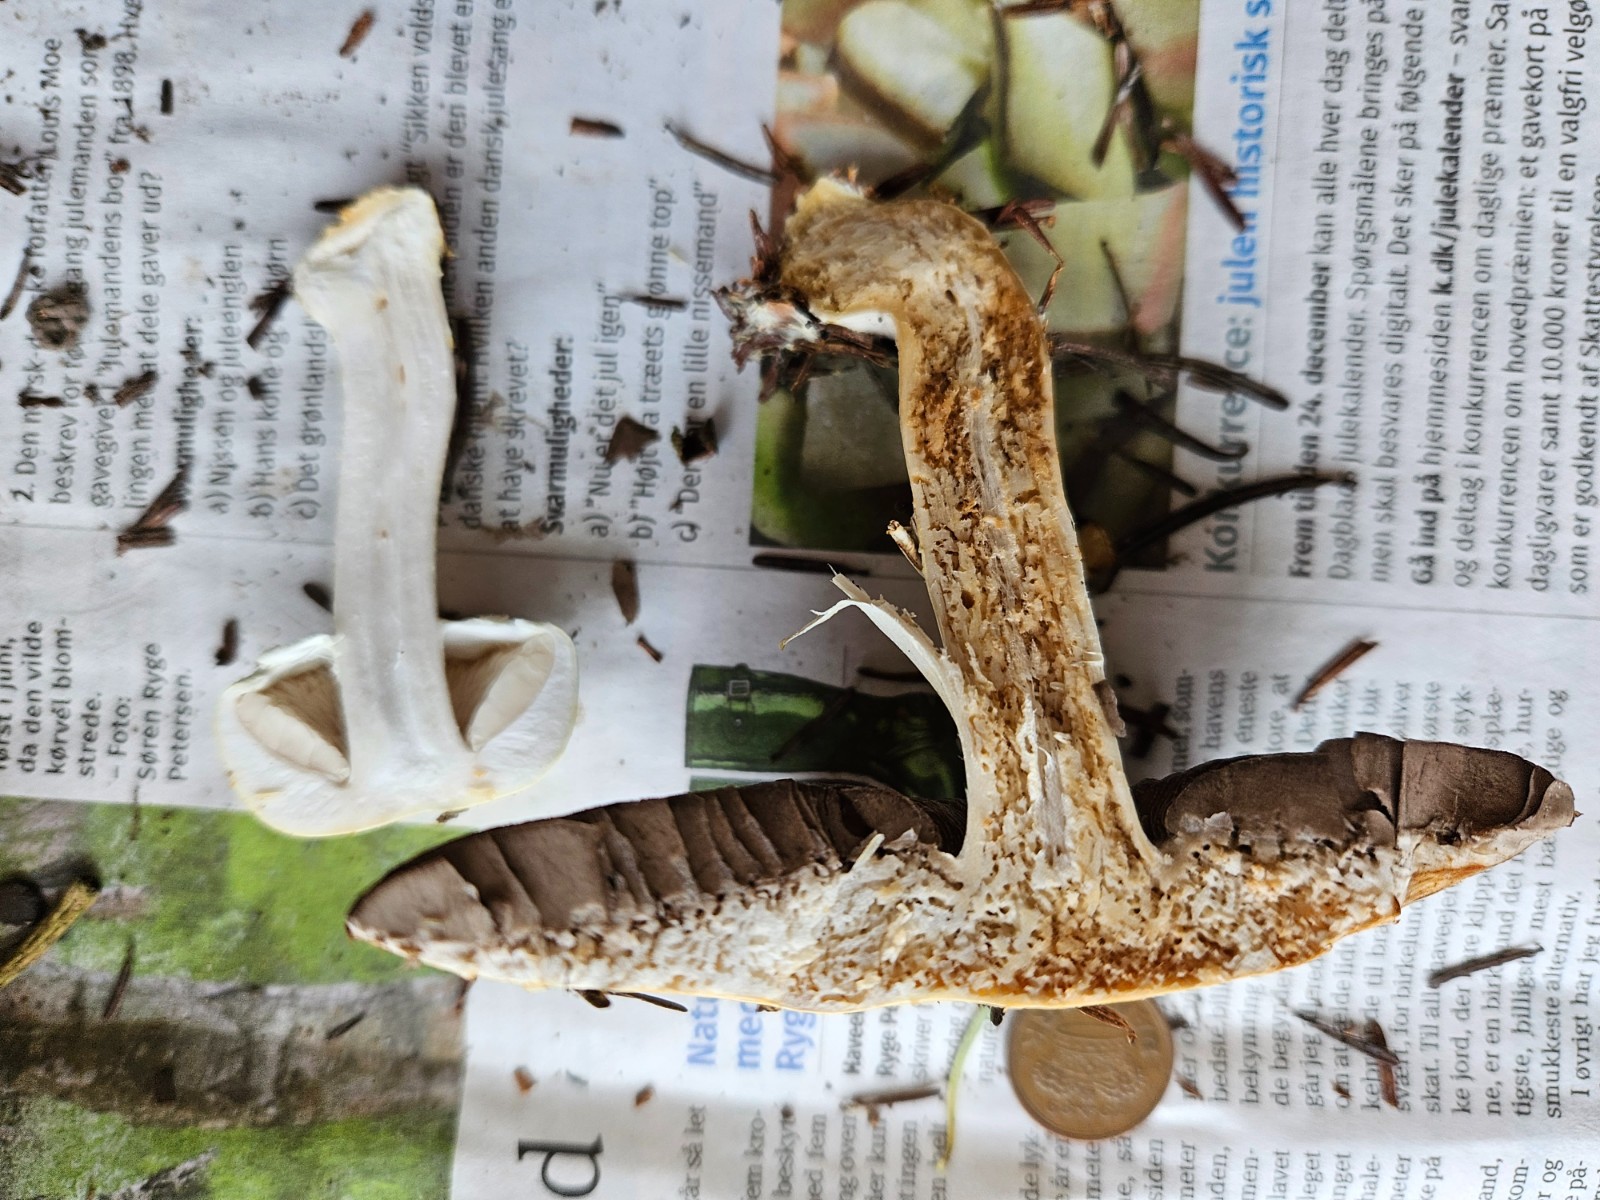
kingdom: Fungi
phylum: Basidiomycota
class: Agaricomycetes
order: Agaricales
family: Agaricaceae
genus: Agaricus
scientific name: Agaricus sylvicola
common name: skiveknoldet champignon
